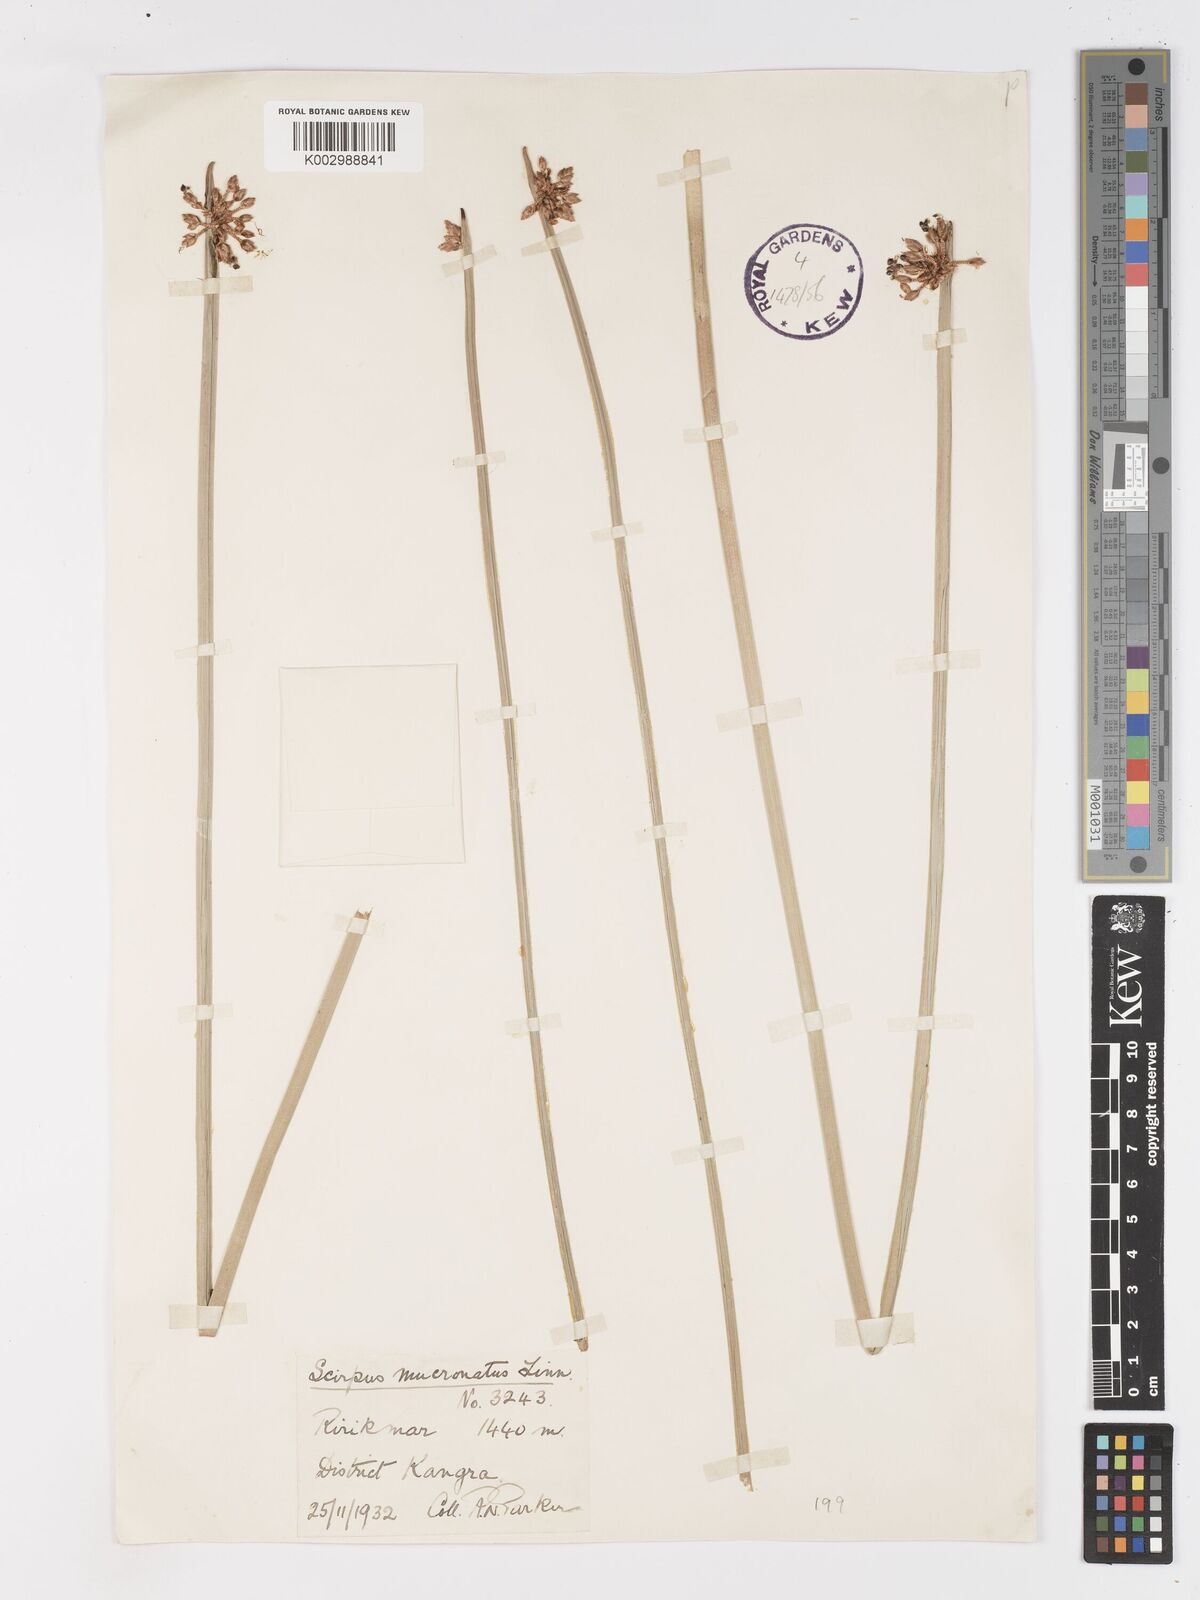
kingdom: Plantae
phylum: Tracheophyta
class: Liliopsida
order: Poales
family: Cyperaceae
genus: Schoenoplectiella
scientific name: Schoenoplectiella mucronata
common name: Bog bulrush
